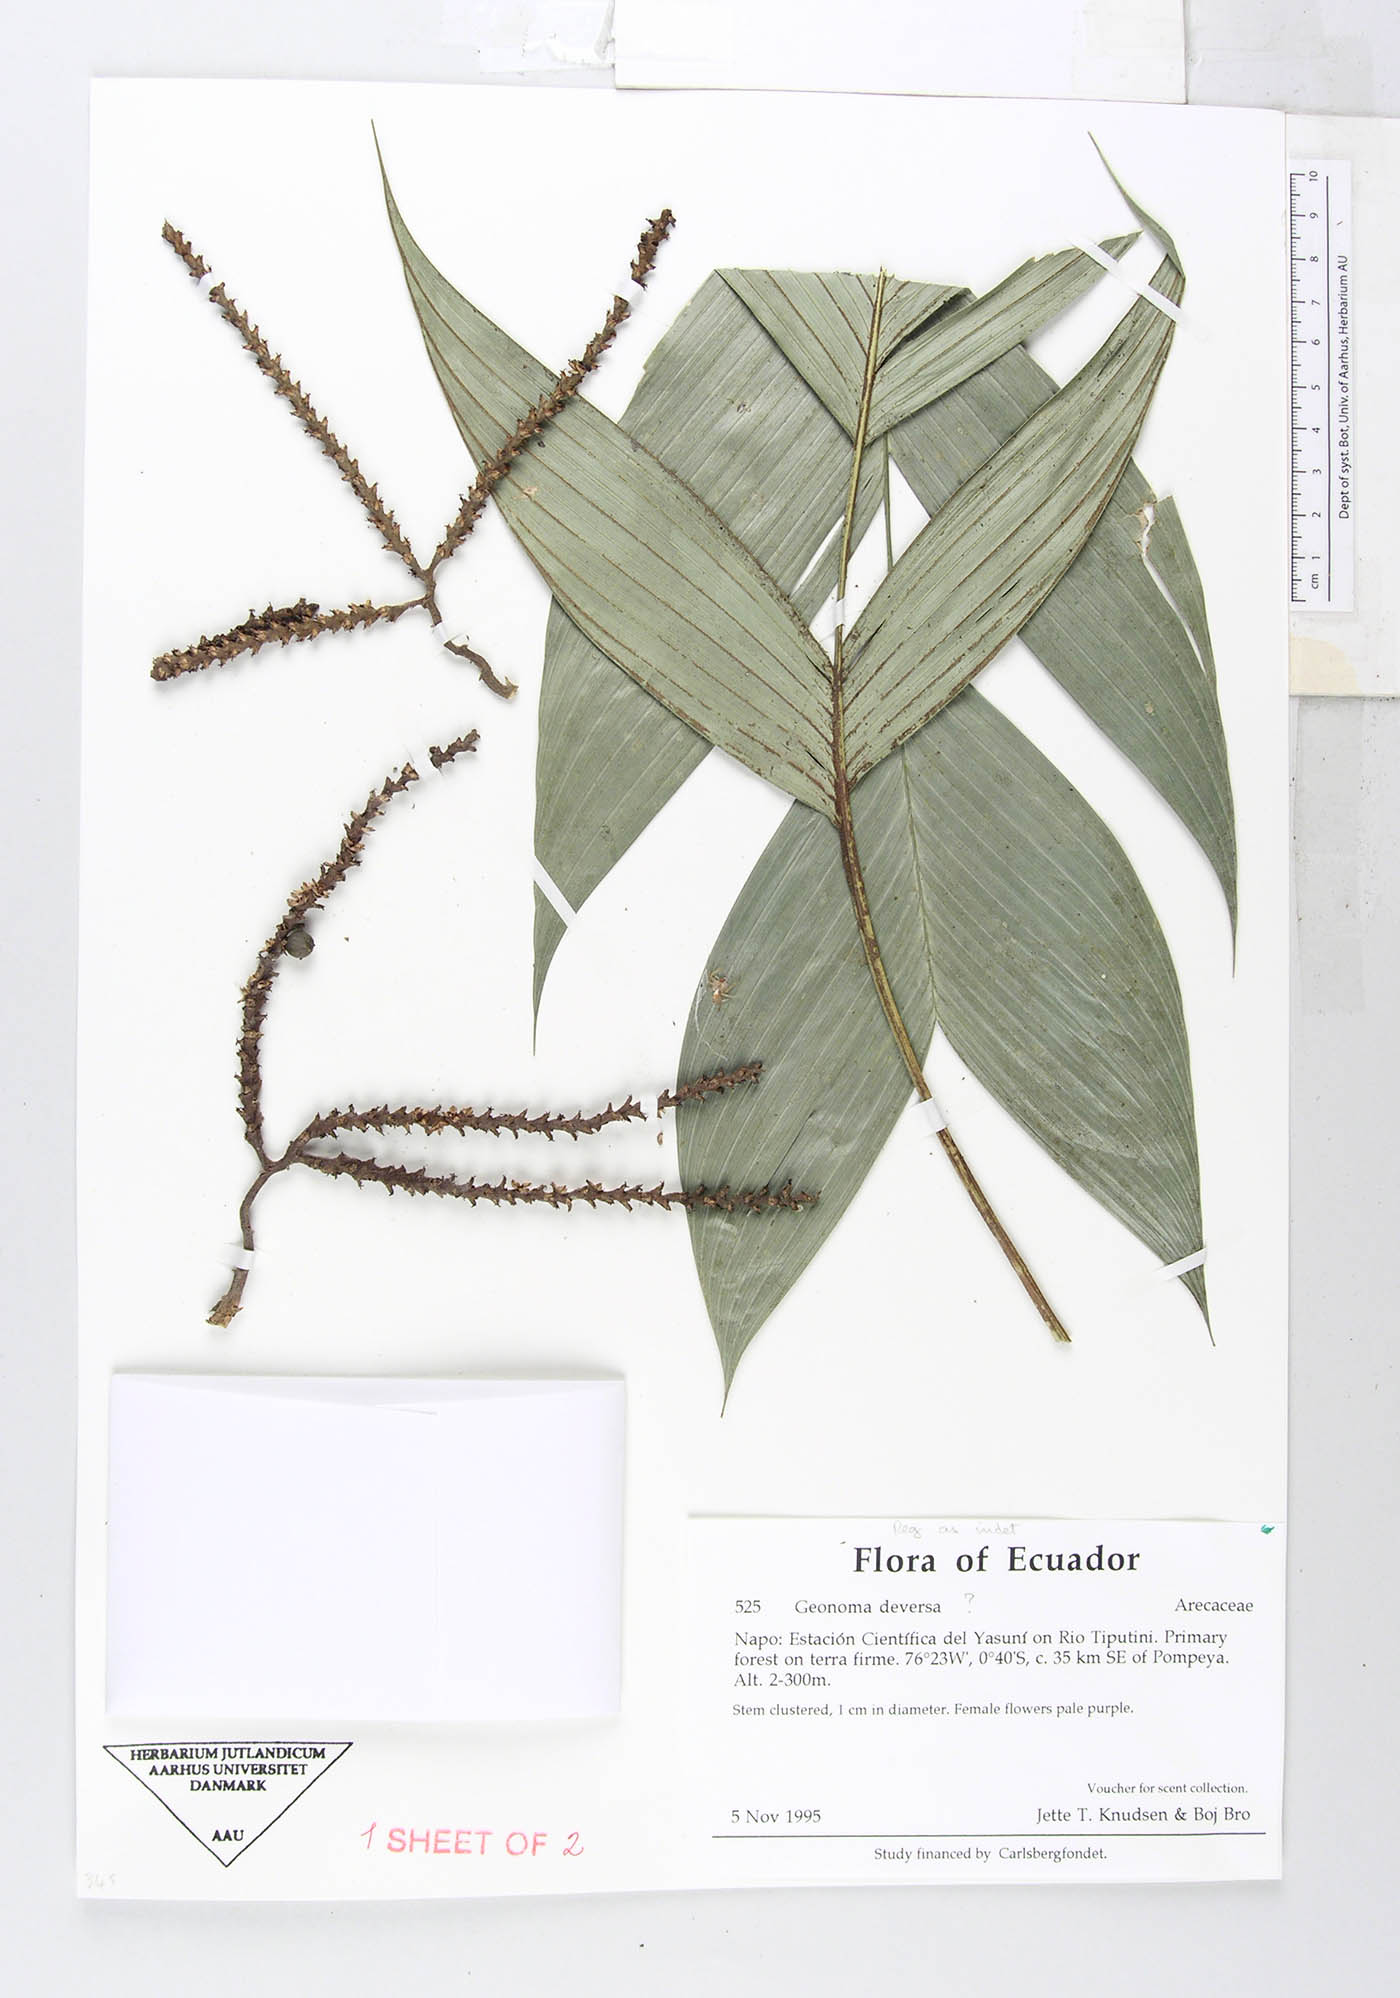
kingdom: Plantae
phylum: Tracheophyta
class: Liliopsida
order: Arecales
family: Arecaceae
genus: Geonoma
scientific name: Geonoma stricta
